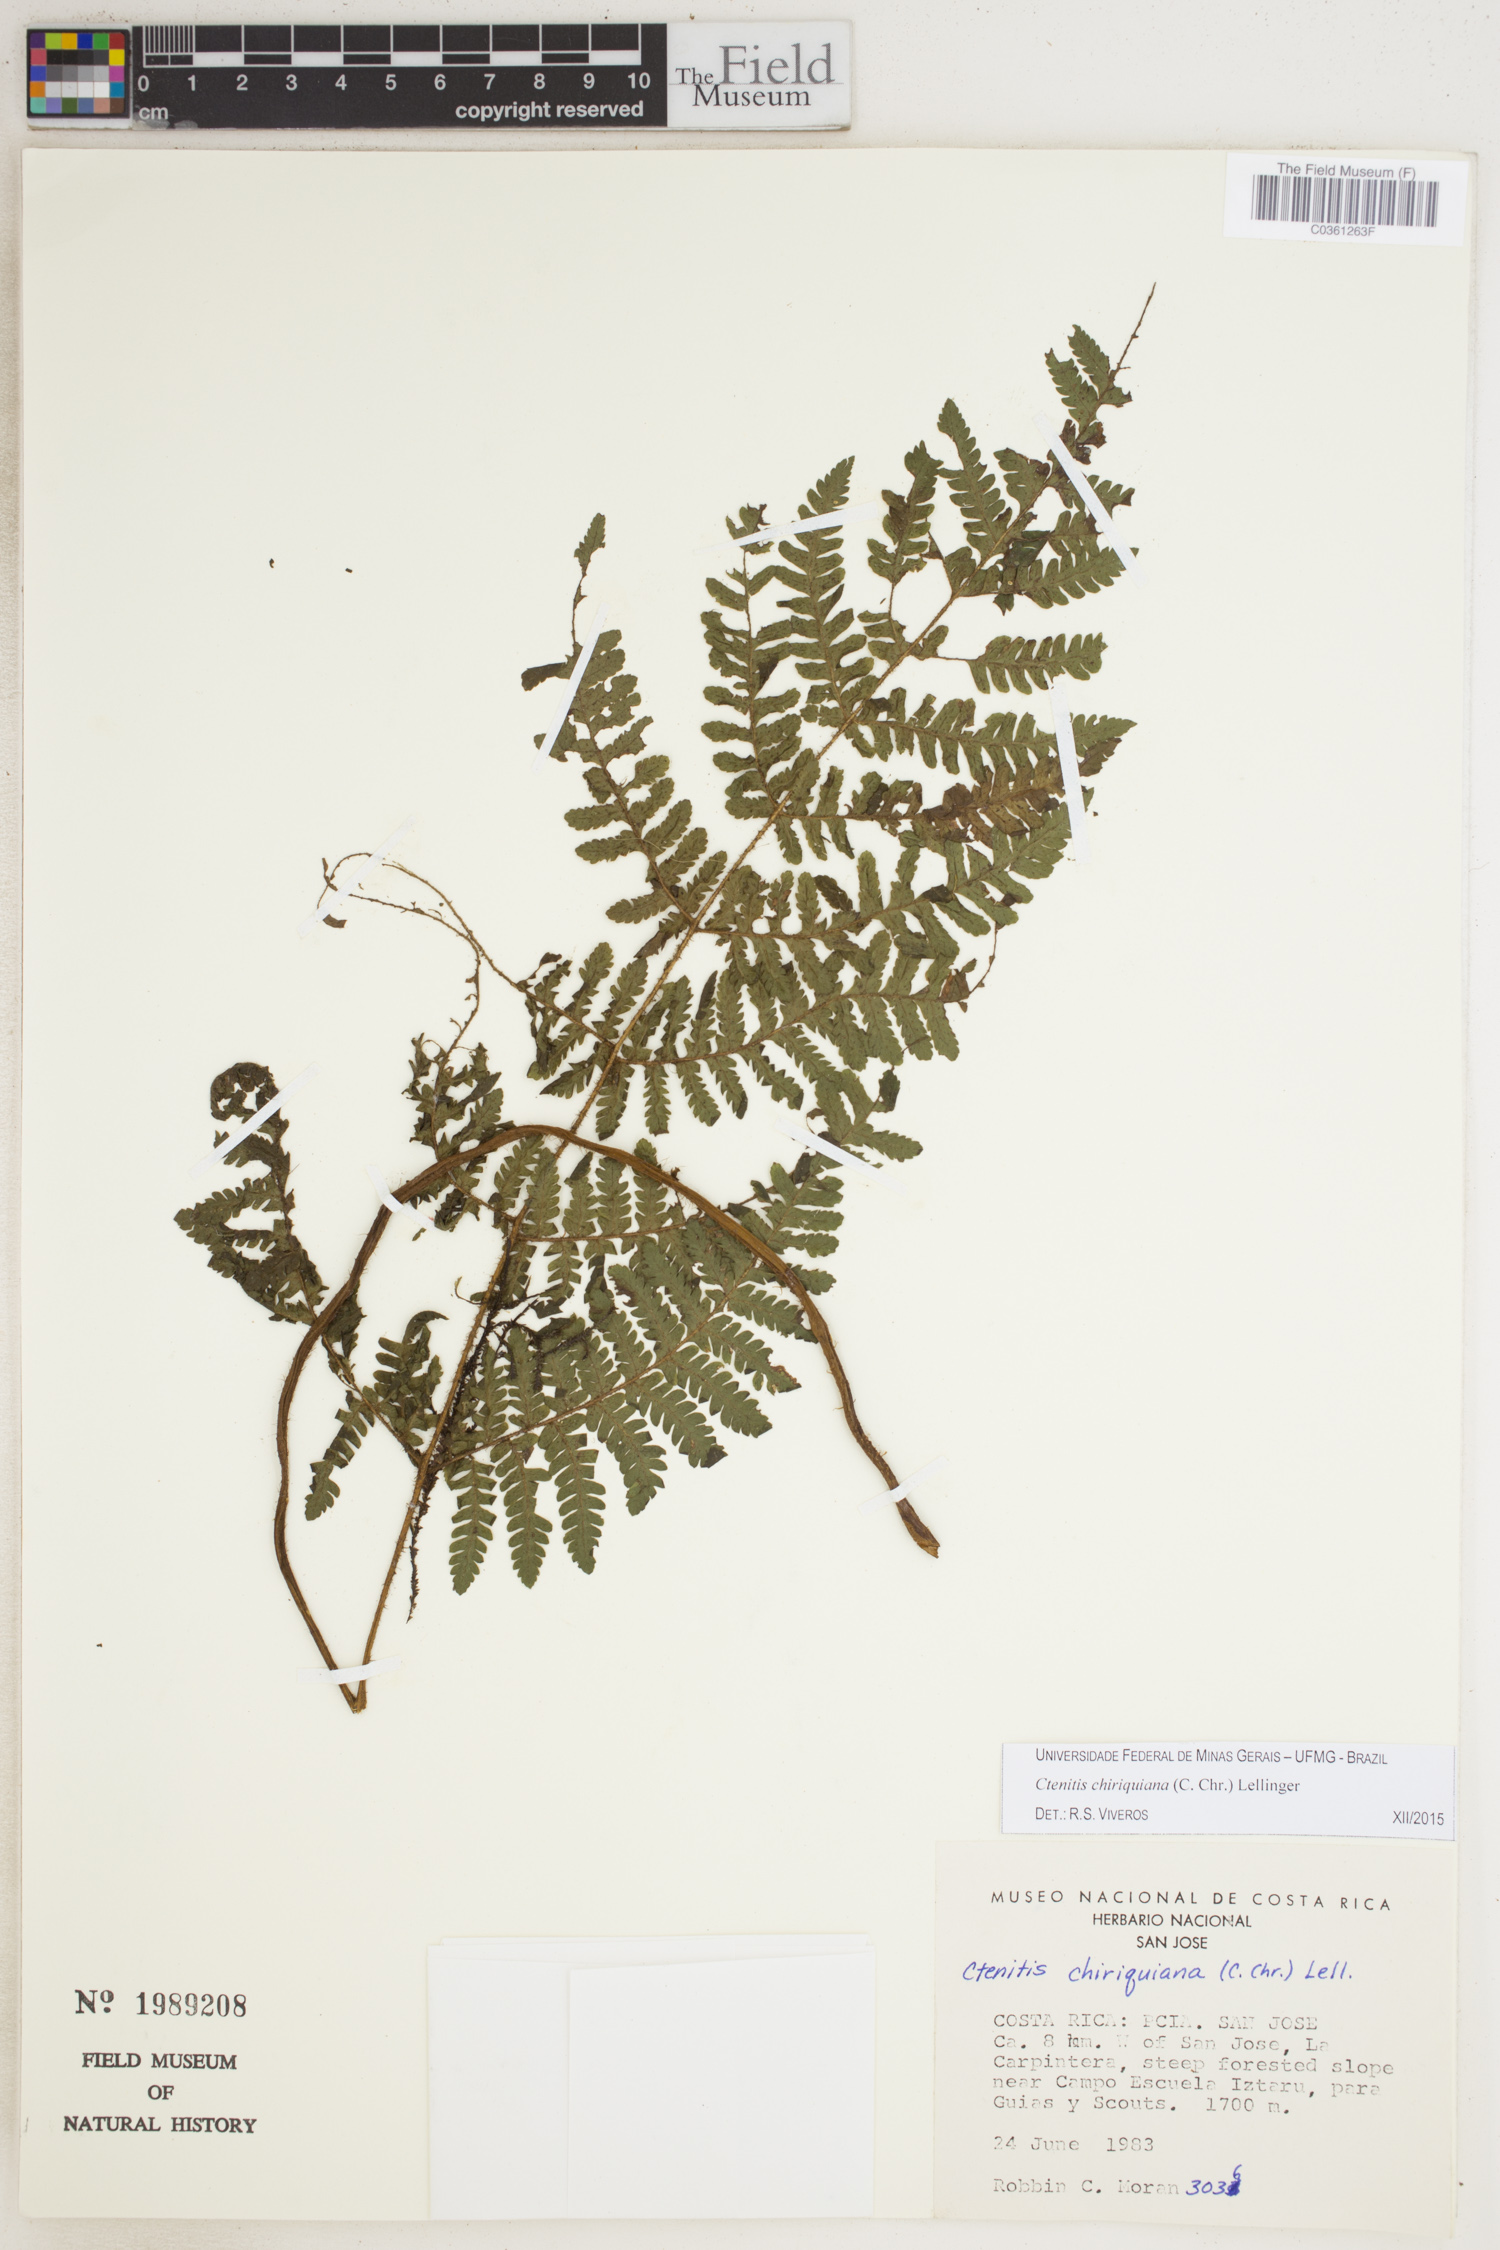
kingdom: Plantae
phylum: Tracheophyta
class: Polypodiopsida
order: Polypodiales
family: Dryopteridaceae
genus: Ctenitis
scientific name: Ctenitis chiriquiana
